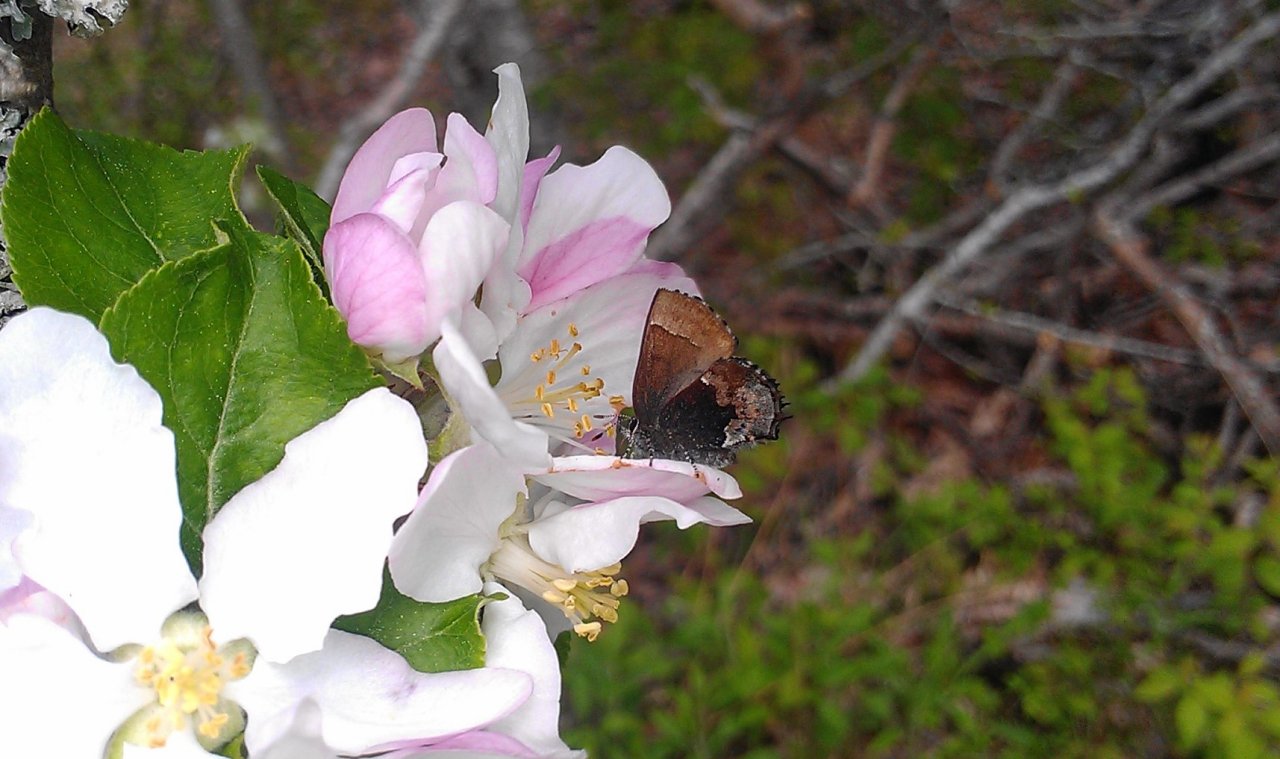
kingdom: Animalia
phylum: Arthropoda
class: Insecta
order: Lepidoptera
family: Lycaenidae
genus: Incisalia
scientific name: Incisalia henrici
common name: Henry's Elfin
